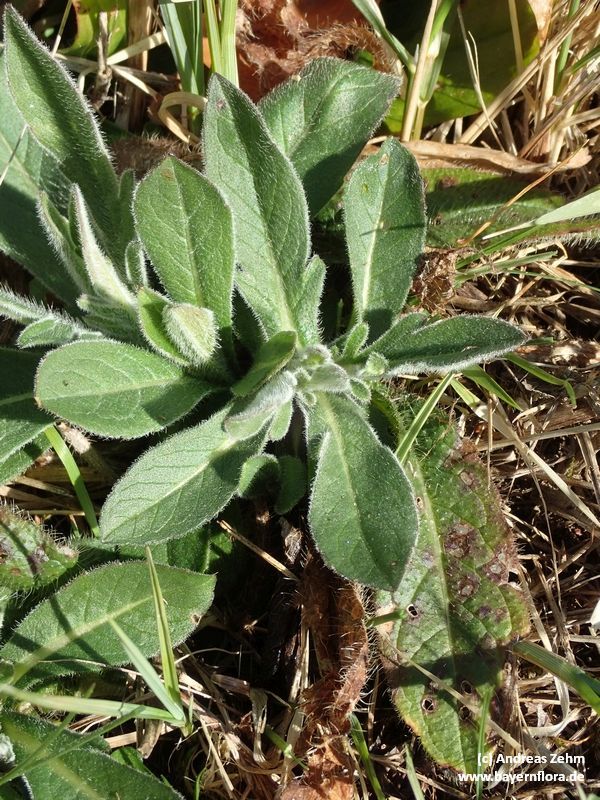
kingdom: Plantae
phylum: Tracheophyta
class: Magnoliopsida
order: Asterales
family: Asteraceae
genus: Centaurea
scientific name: Centaurea scabiosa
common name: Greater knapweed
